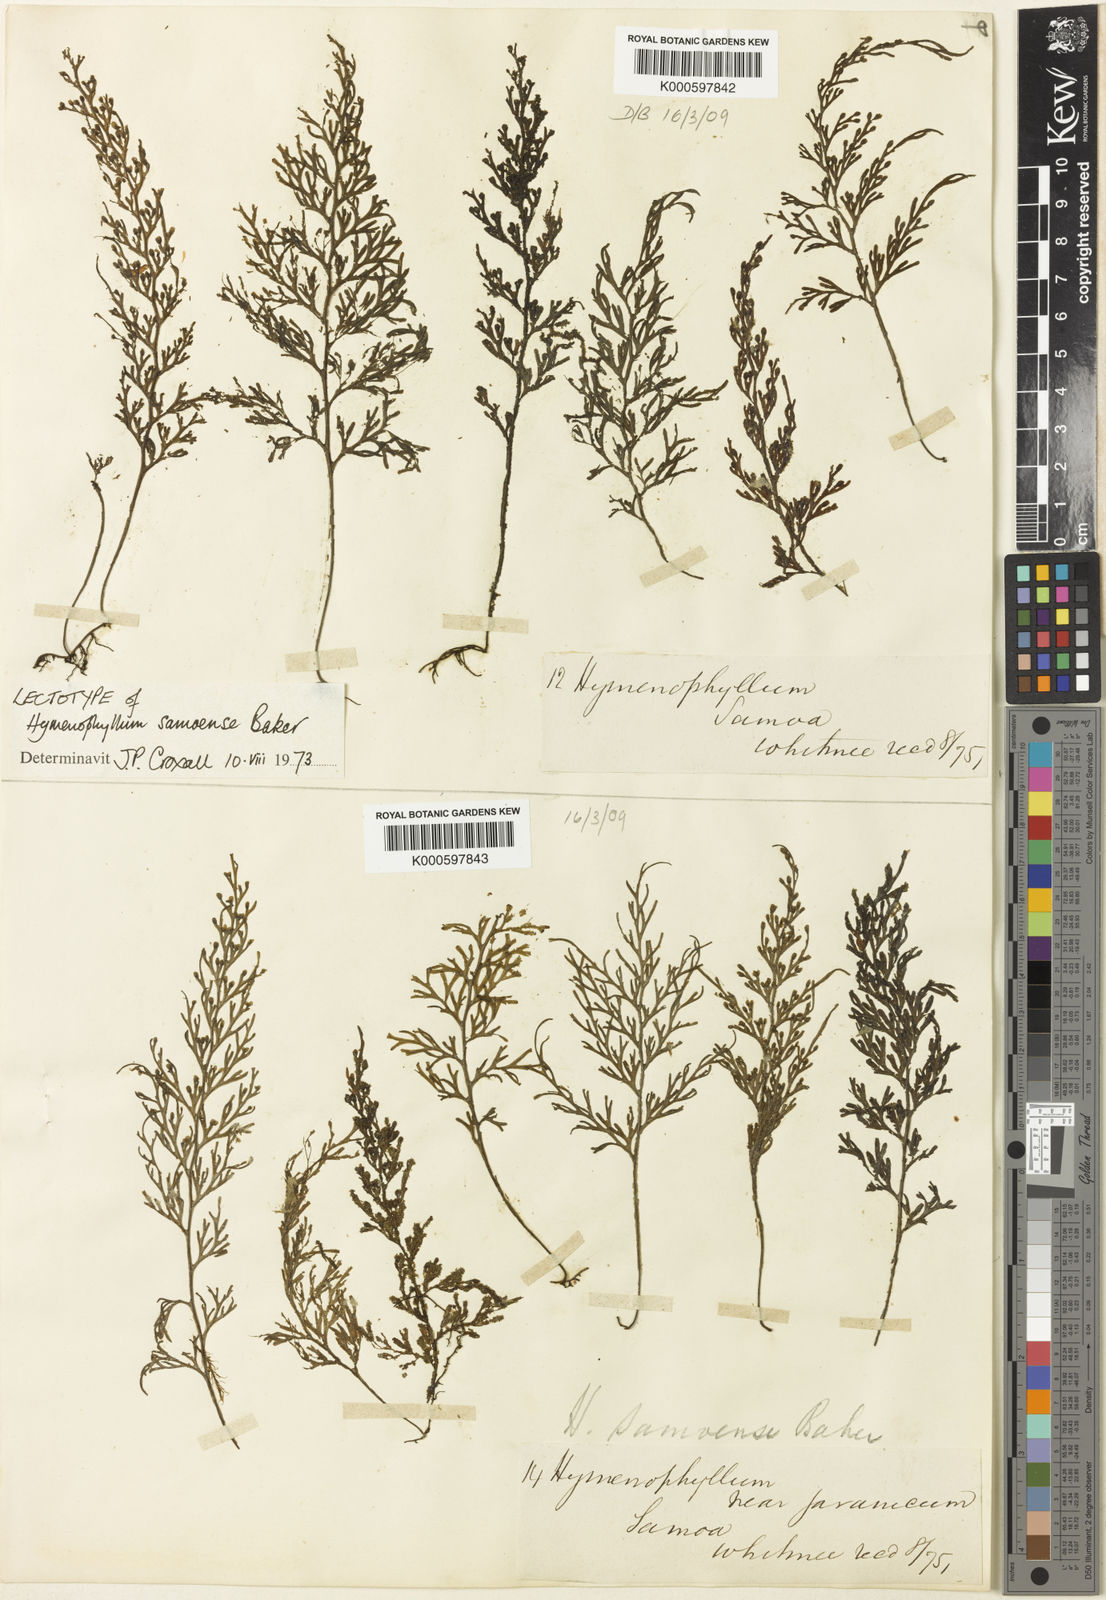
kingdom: Plantae
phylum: Tracheophyta
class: Polypodiopsida
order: Hymenophyllales
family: Hymenophyllaceae
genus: Hymenophyllum
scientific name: Hymenophyllum javanicum
